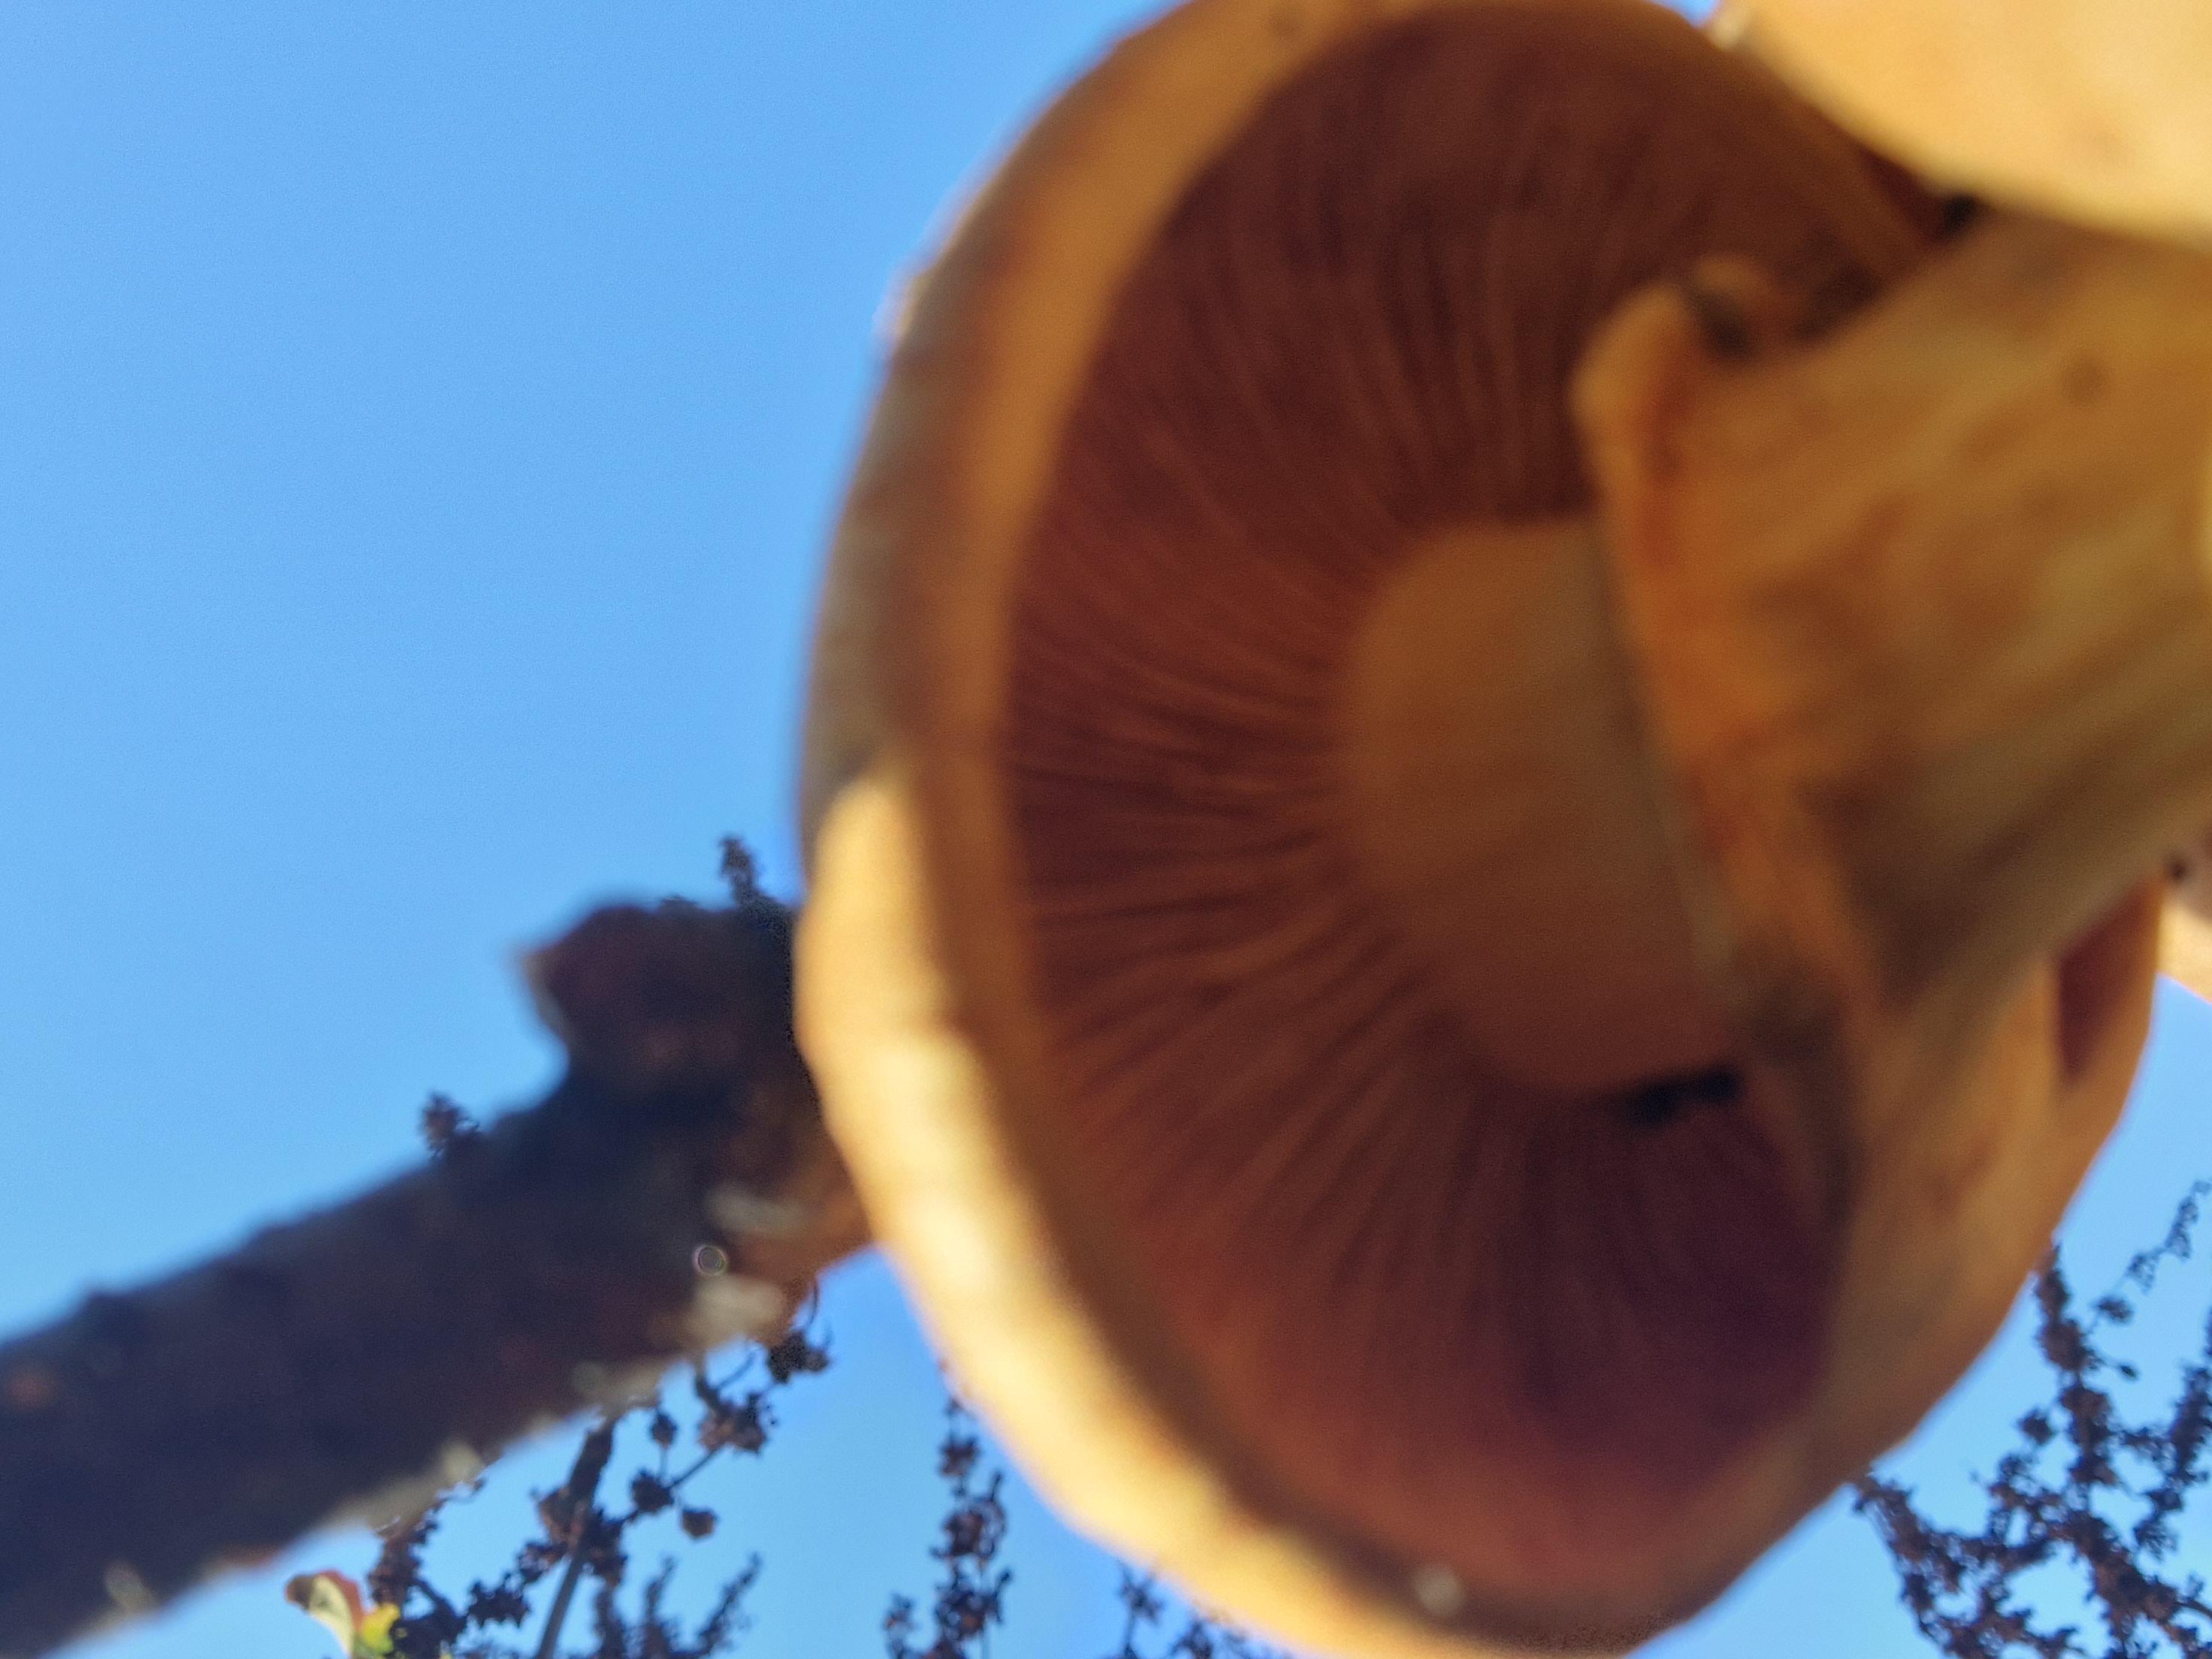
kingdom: Fungi
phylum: Basidiomycota
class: Agaricomycetes
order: Agaricales
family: Hymenogastraceae
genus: Gymnopilus
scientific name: Gymnopilus spectabilis
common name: fibret flammehat
